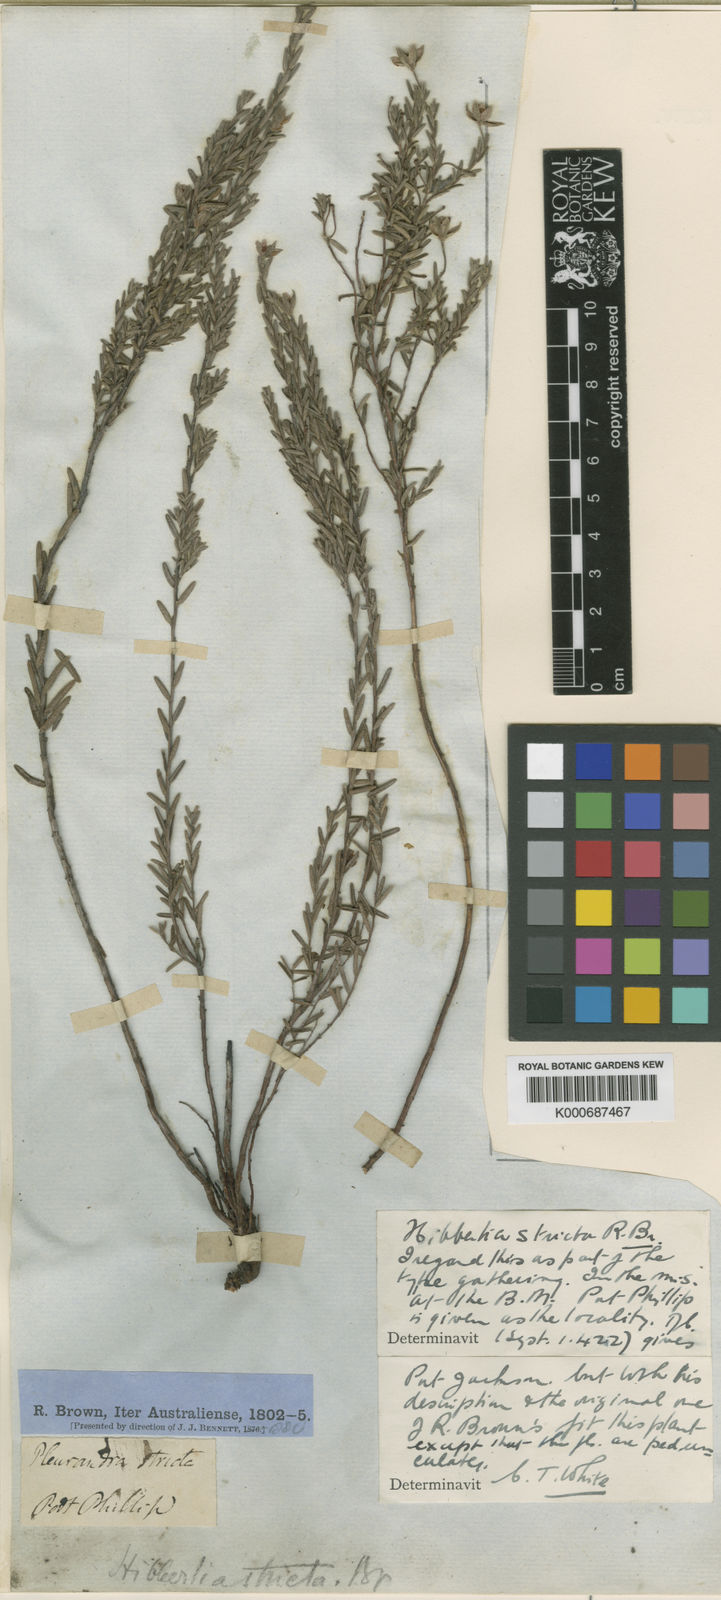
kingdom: Plantae
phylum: Tracheophyta
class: Magnoliopsida
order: Dilleniales
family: Dilleniaceae
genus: Hibbertia
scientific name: Hibbertia
